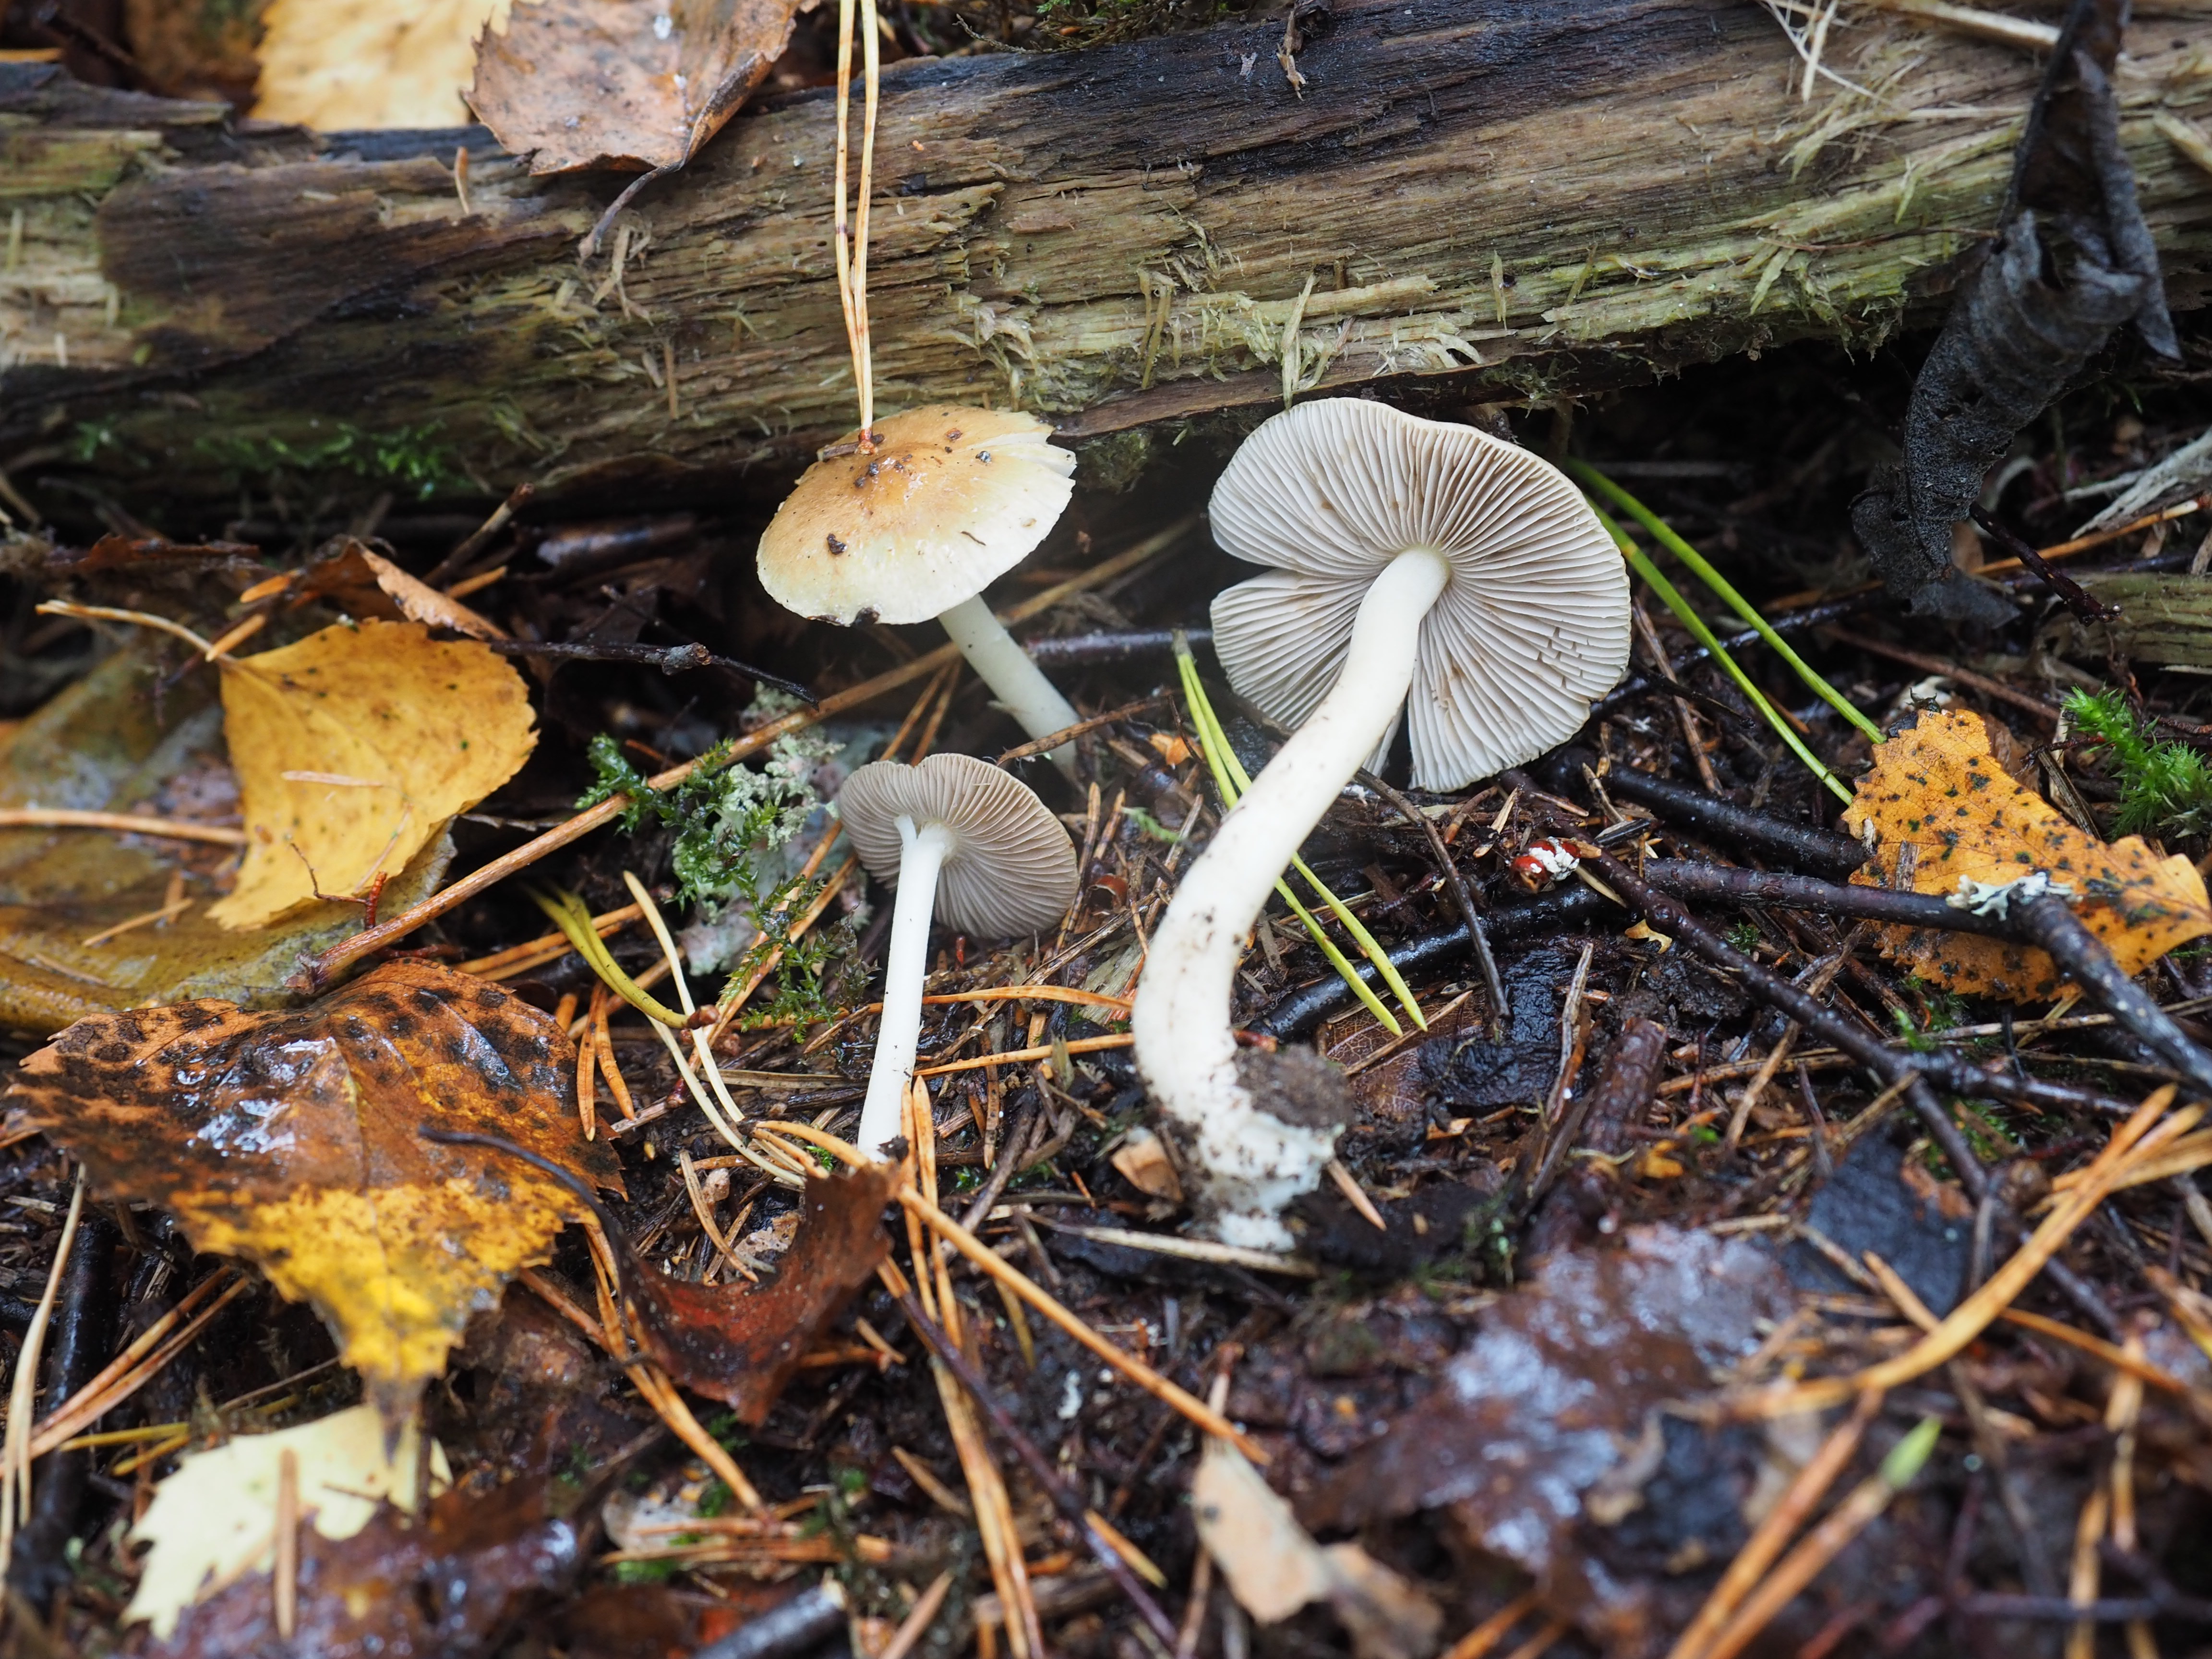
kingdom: Fungi
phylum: Basidiomycota
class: Agaricomycetes
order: Agaricales
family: Inocybaceae
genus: Inocybe
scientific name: Inocybe mixtilis
